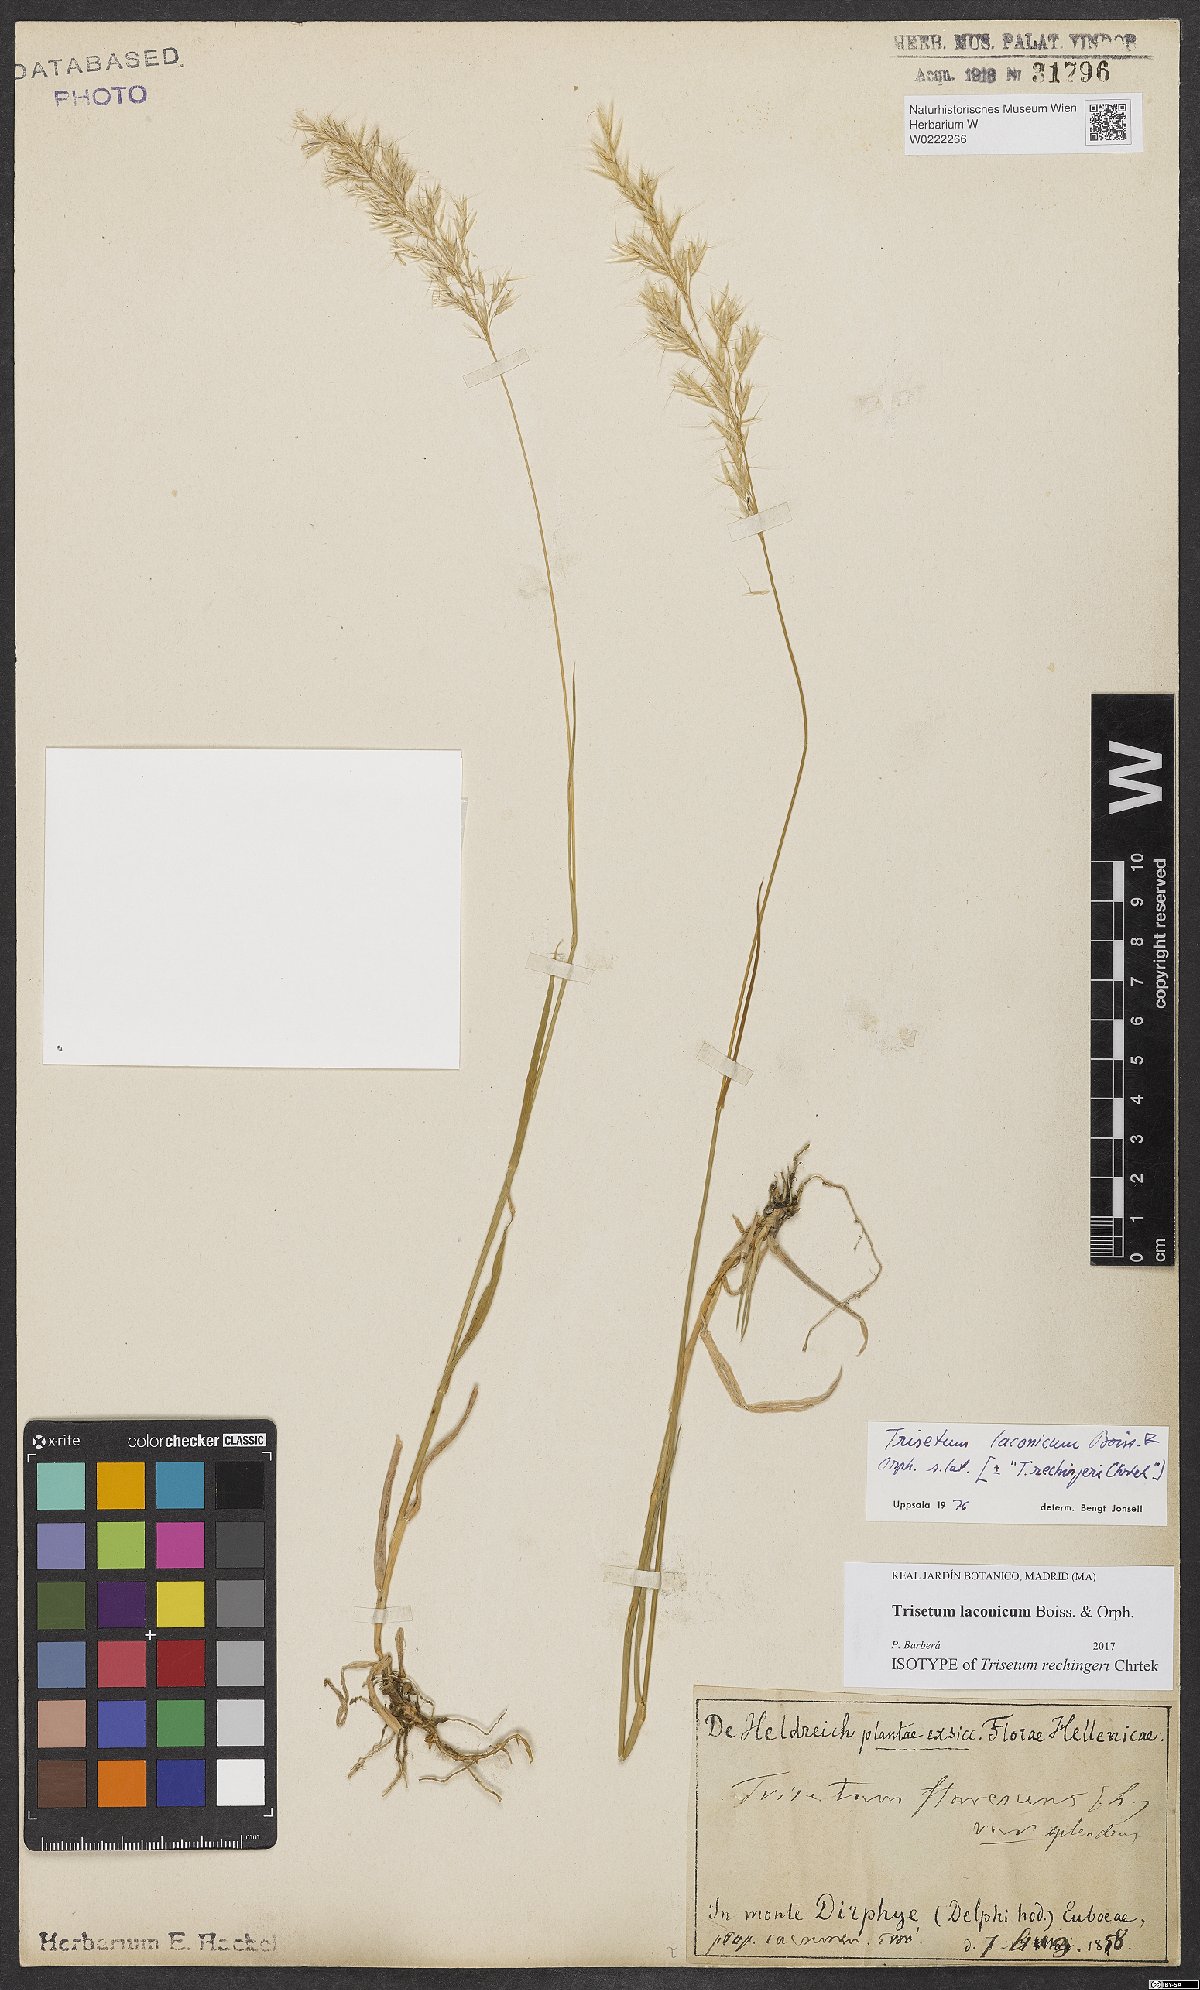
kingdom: Plantae
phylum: Tracheophyta
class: Liliopsida
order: Poales
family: Poaceae
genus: Trisetum
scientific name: Trisetum laconicum
